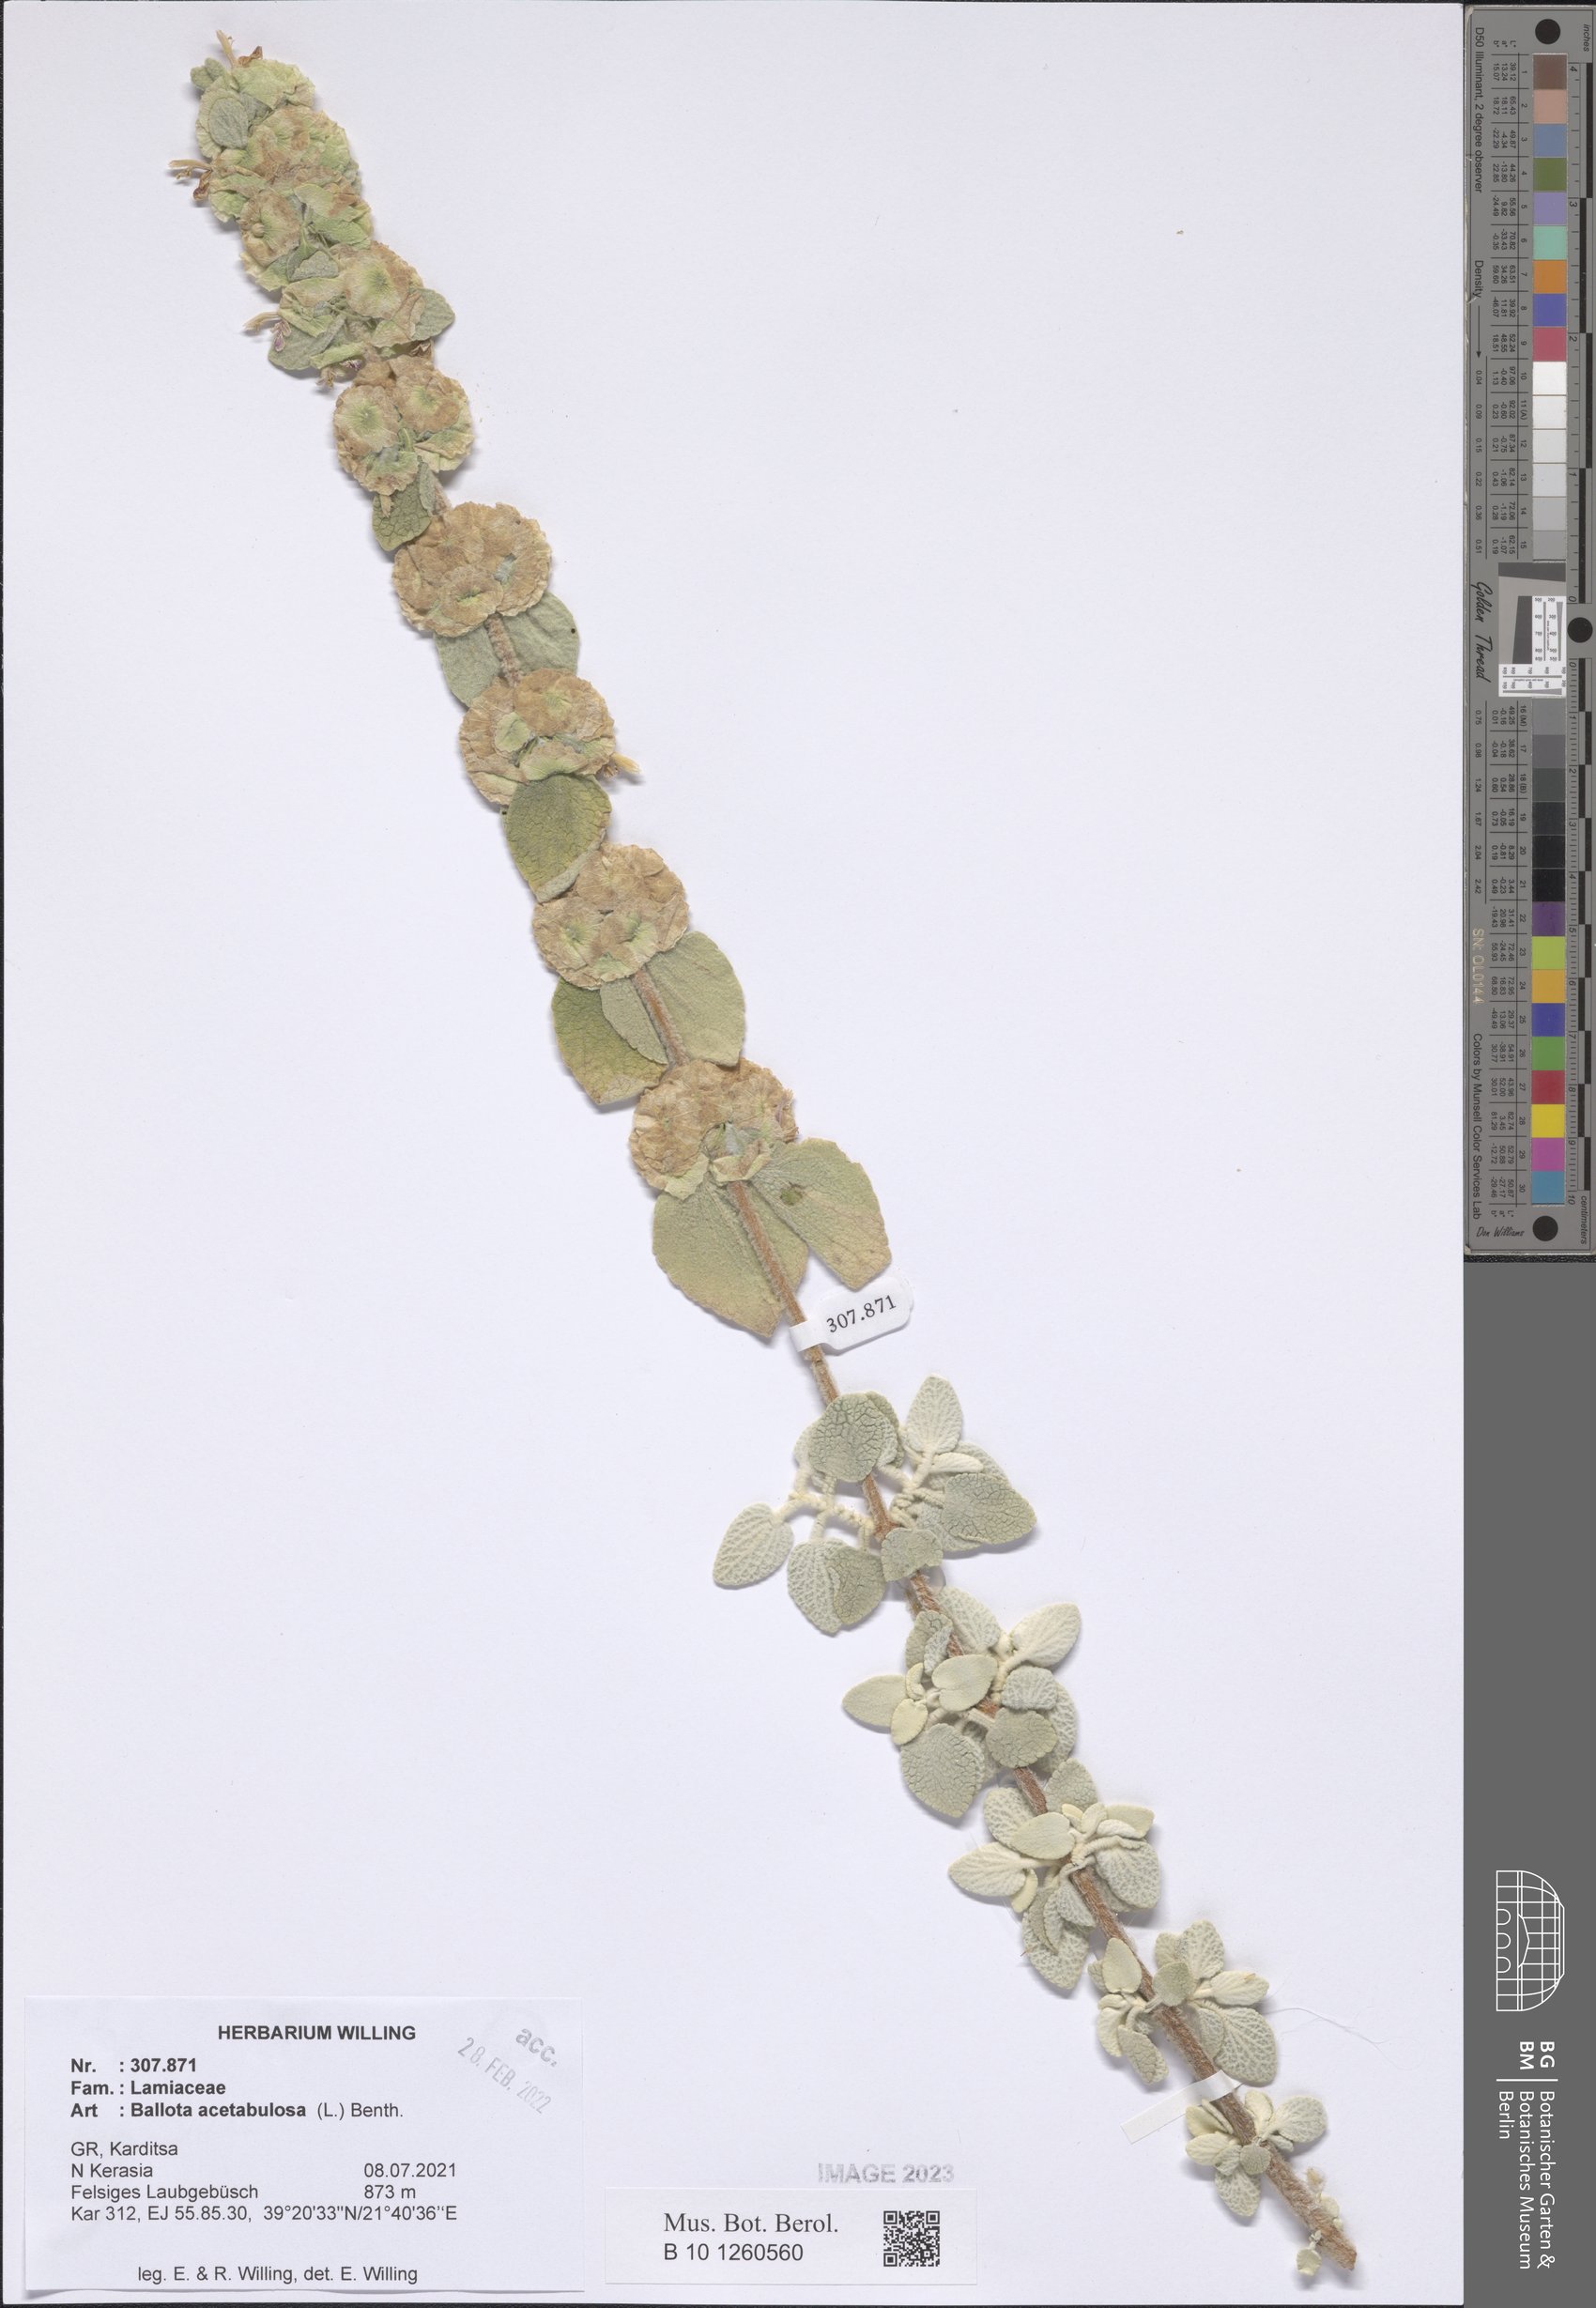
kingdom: Plantae
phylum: Tracheophyta
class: Magnoliopsida
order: Lamiales
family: Lamiaceae
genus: Pseudodictamnus
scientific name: Pseudodictamnus acetabulosus
